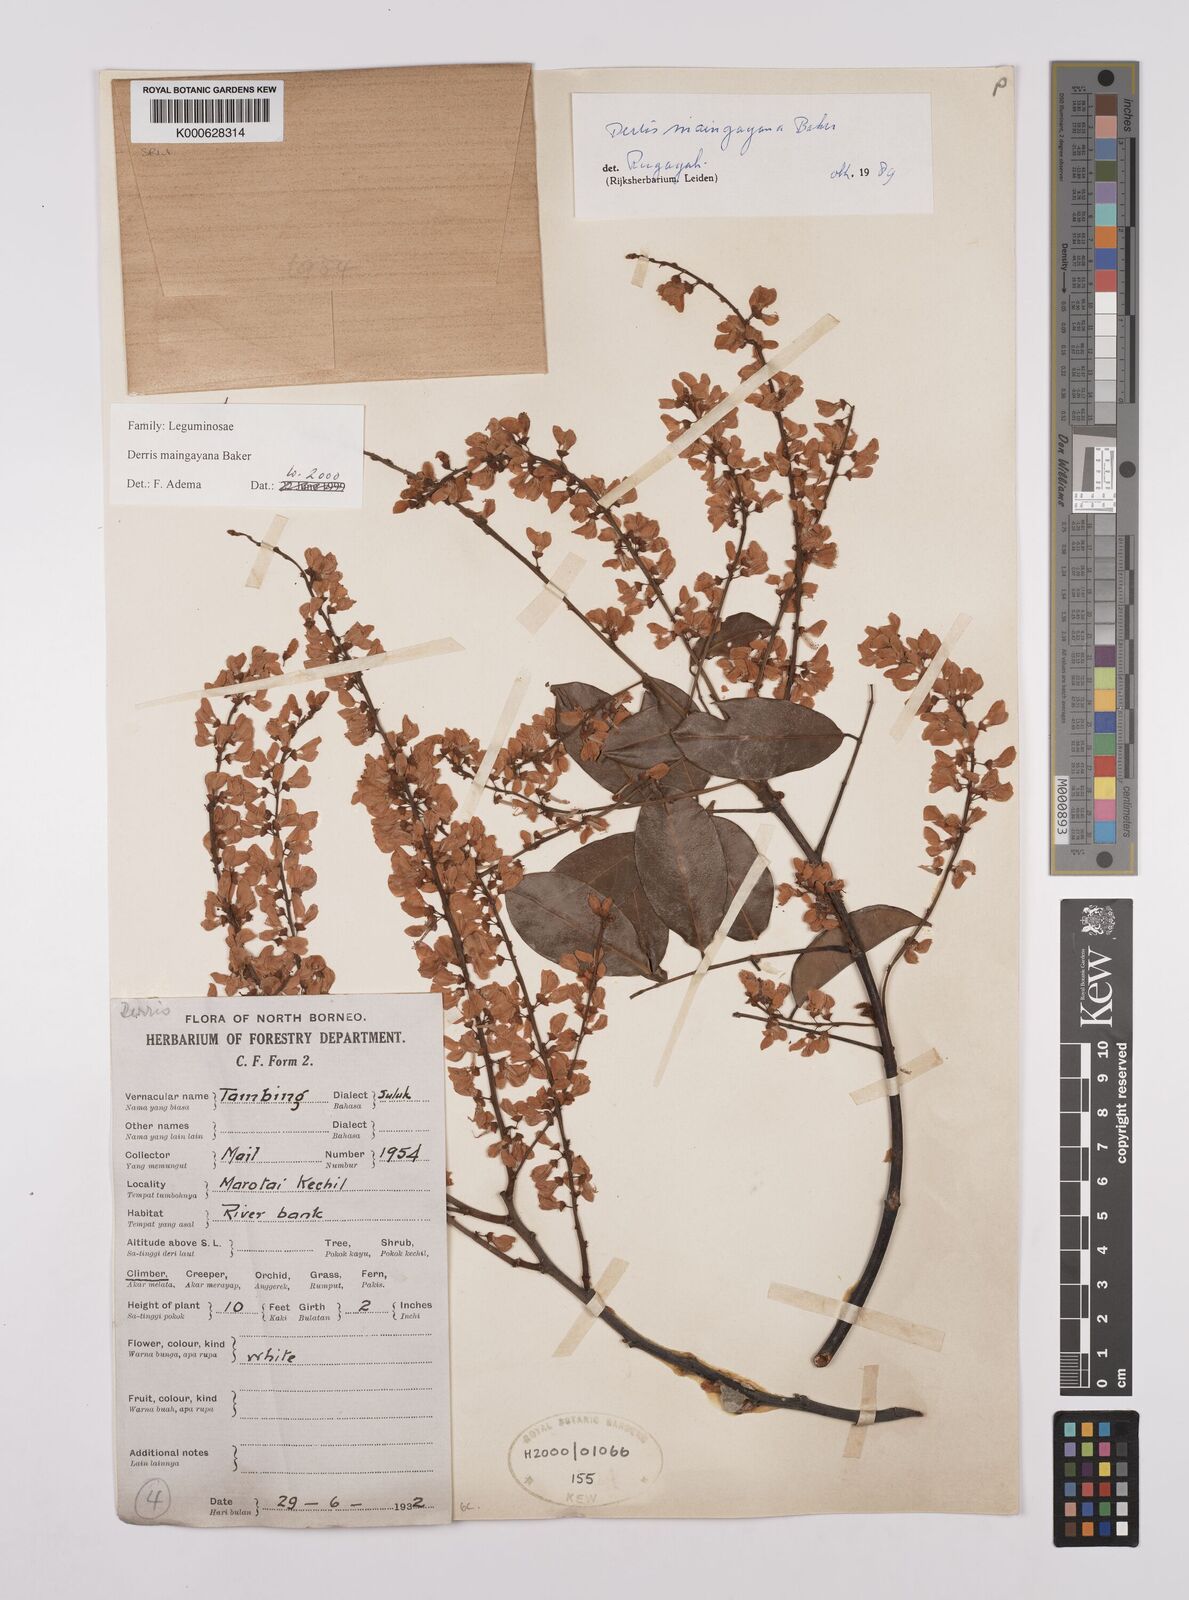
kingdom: Plantae
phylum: Tracheophyta
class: Magnoliopsida
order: Fabales
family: Fabaceae
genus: Derris
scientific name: Derris amoena
